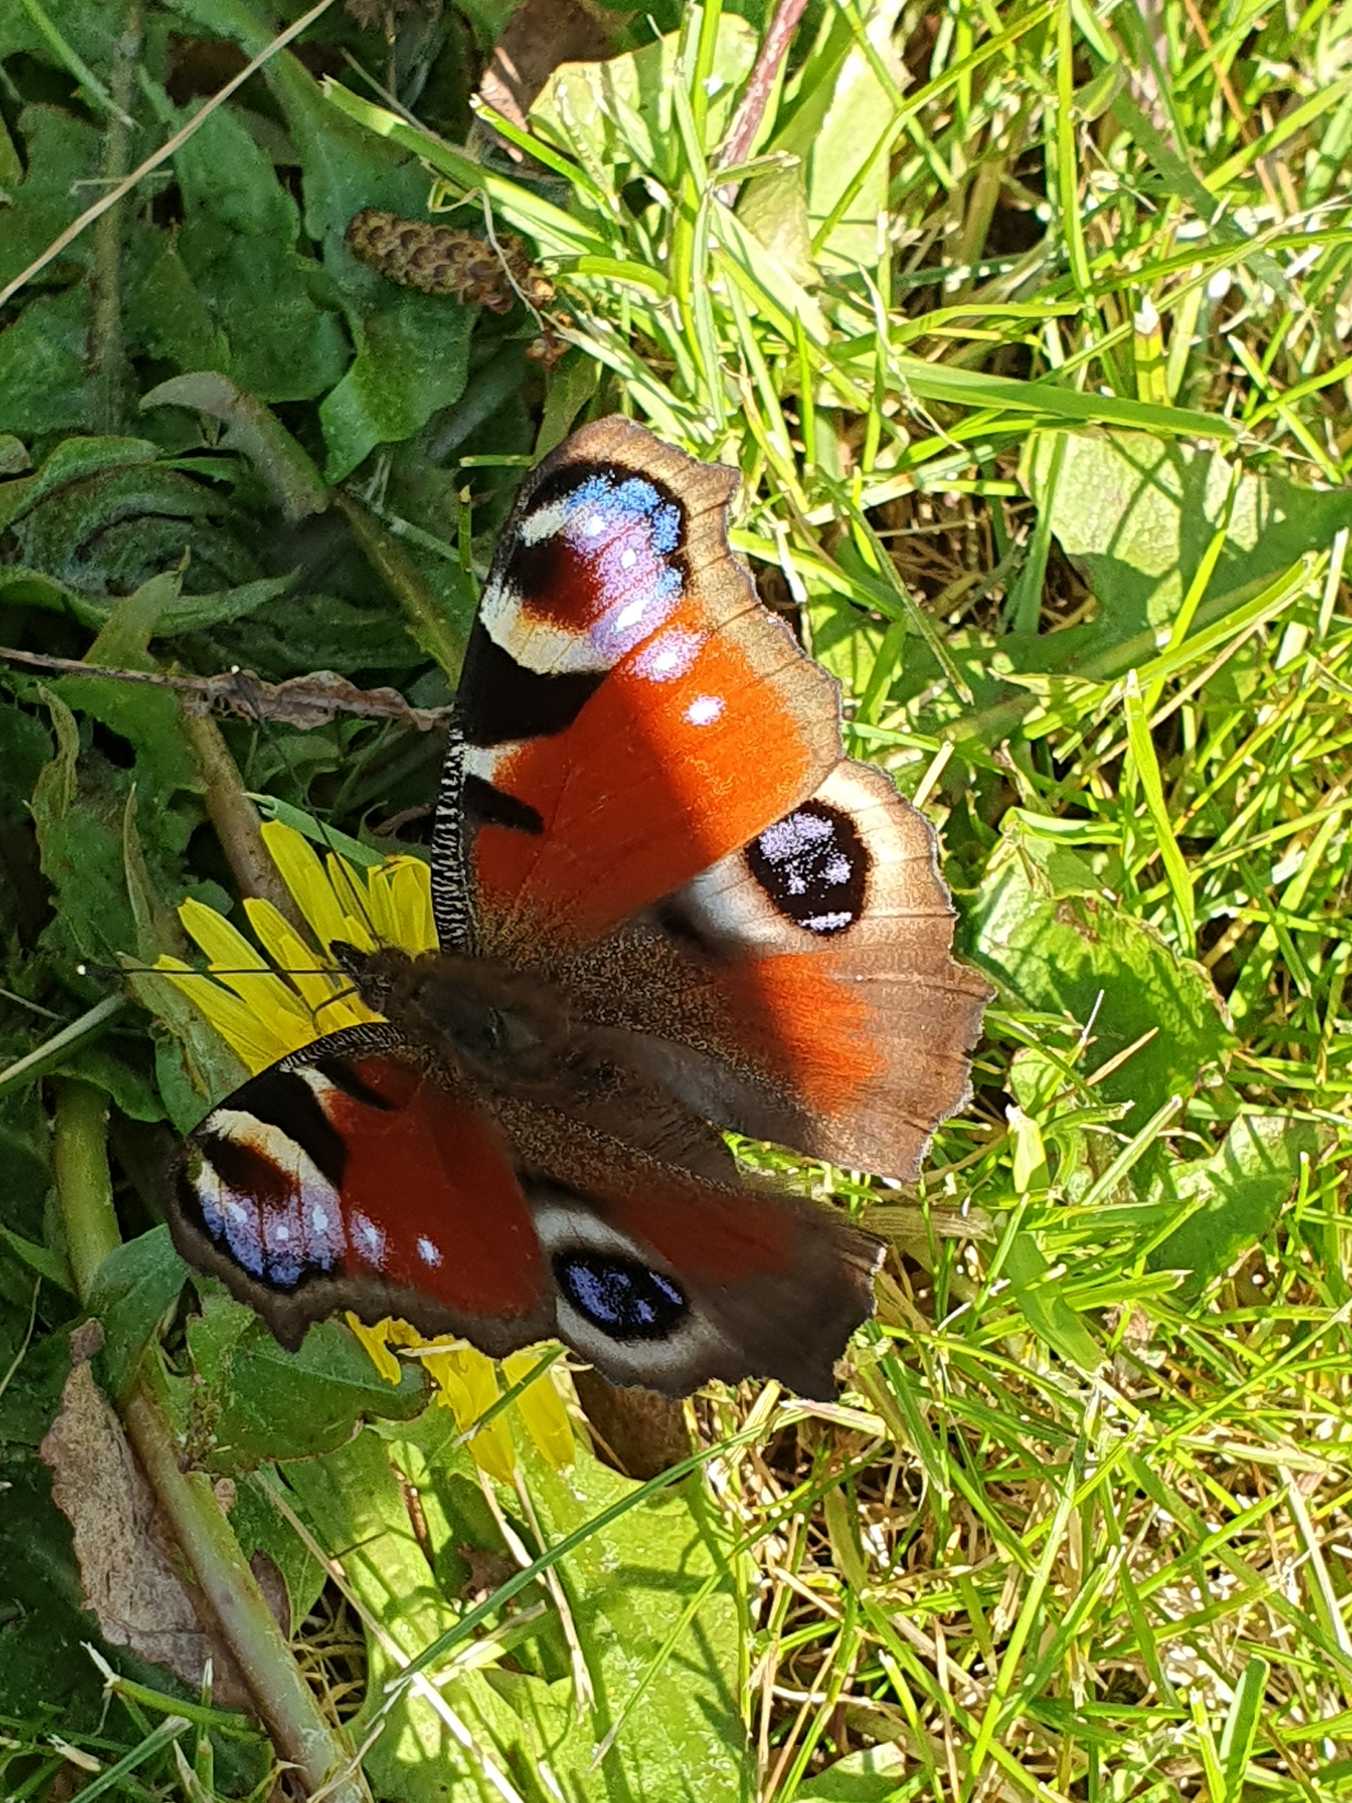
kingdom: Animalia
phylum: Arthropoda
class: Insecta
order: Lepidoptera
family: Nymphalidae
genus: Aglais
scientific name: Aglais io
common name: Dagpåfugleøje
